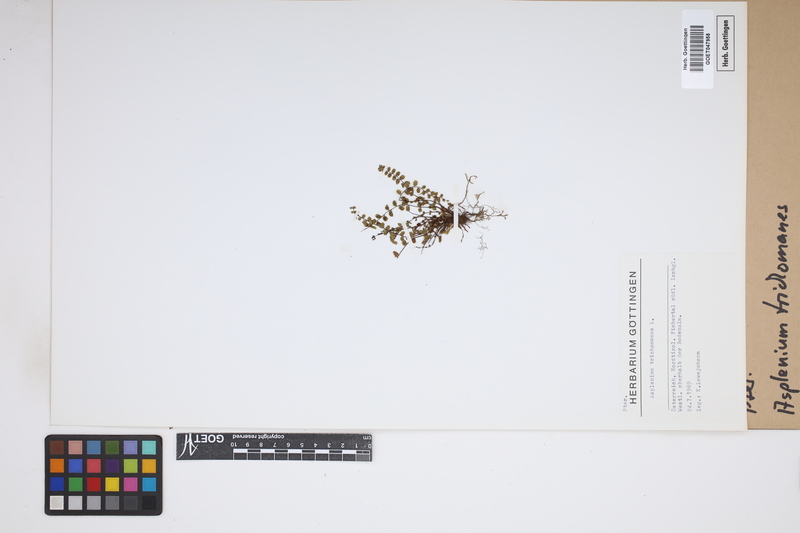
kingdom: Plantae
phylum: Tracheophyta
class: Polypodiopsida
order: Polypodiales
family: Aspleniaceae
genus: Asplenium
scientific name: Asplenium trichomanes
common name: Maidenhair spleenwort
